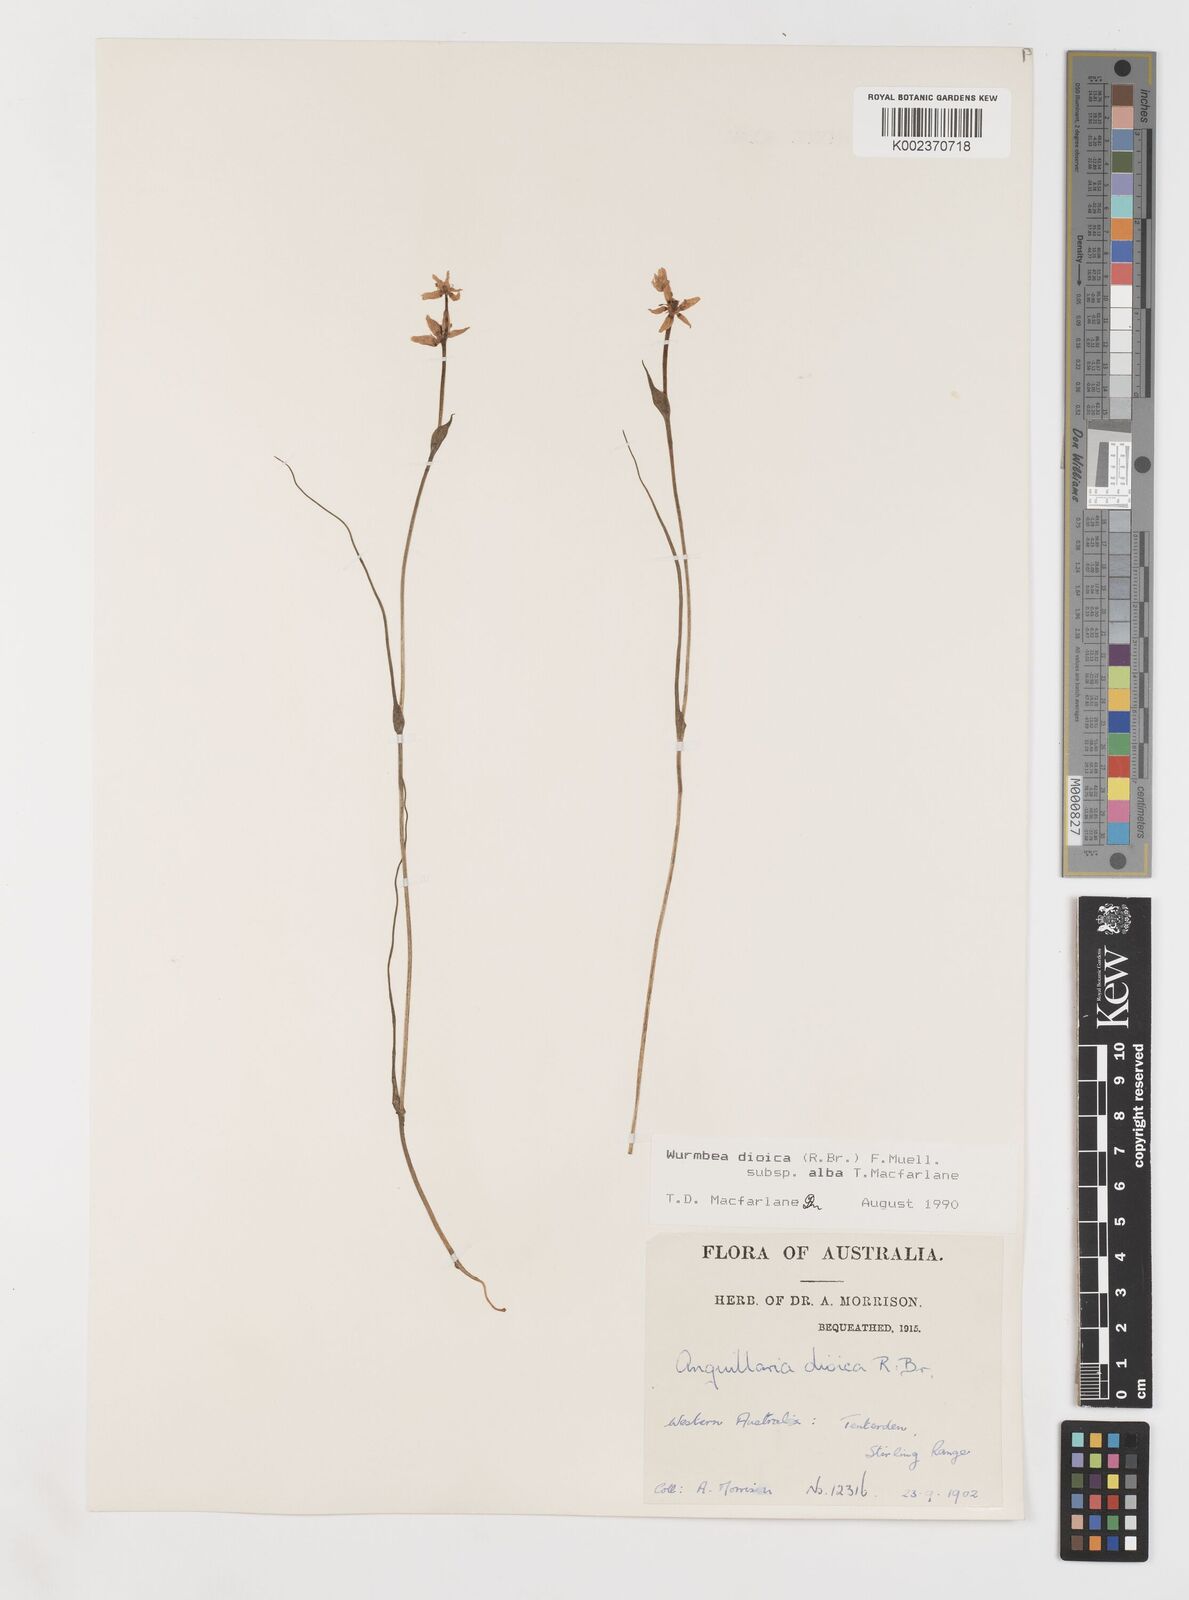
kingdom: Plantae
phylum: Tracheophyta
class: Liliopsida
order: Liliales
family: Colchicaceae
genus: Wurmbea
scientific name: Wurmbea dioica
